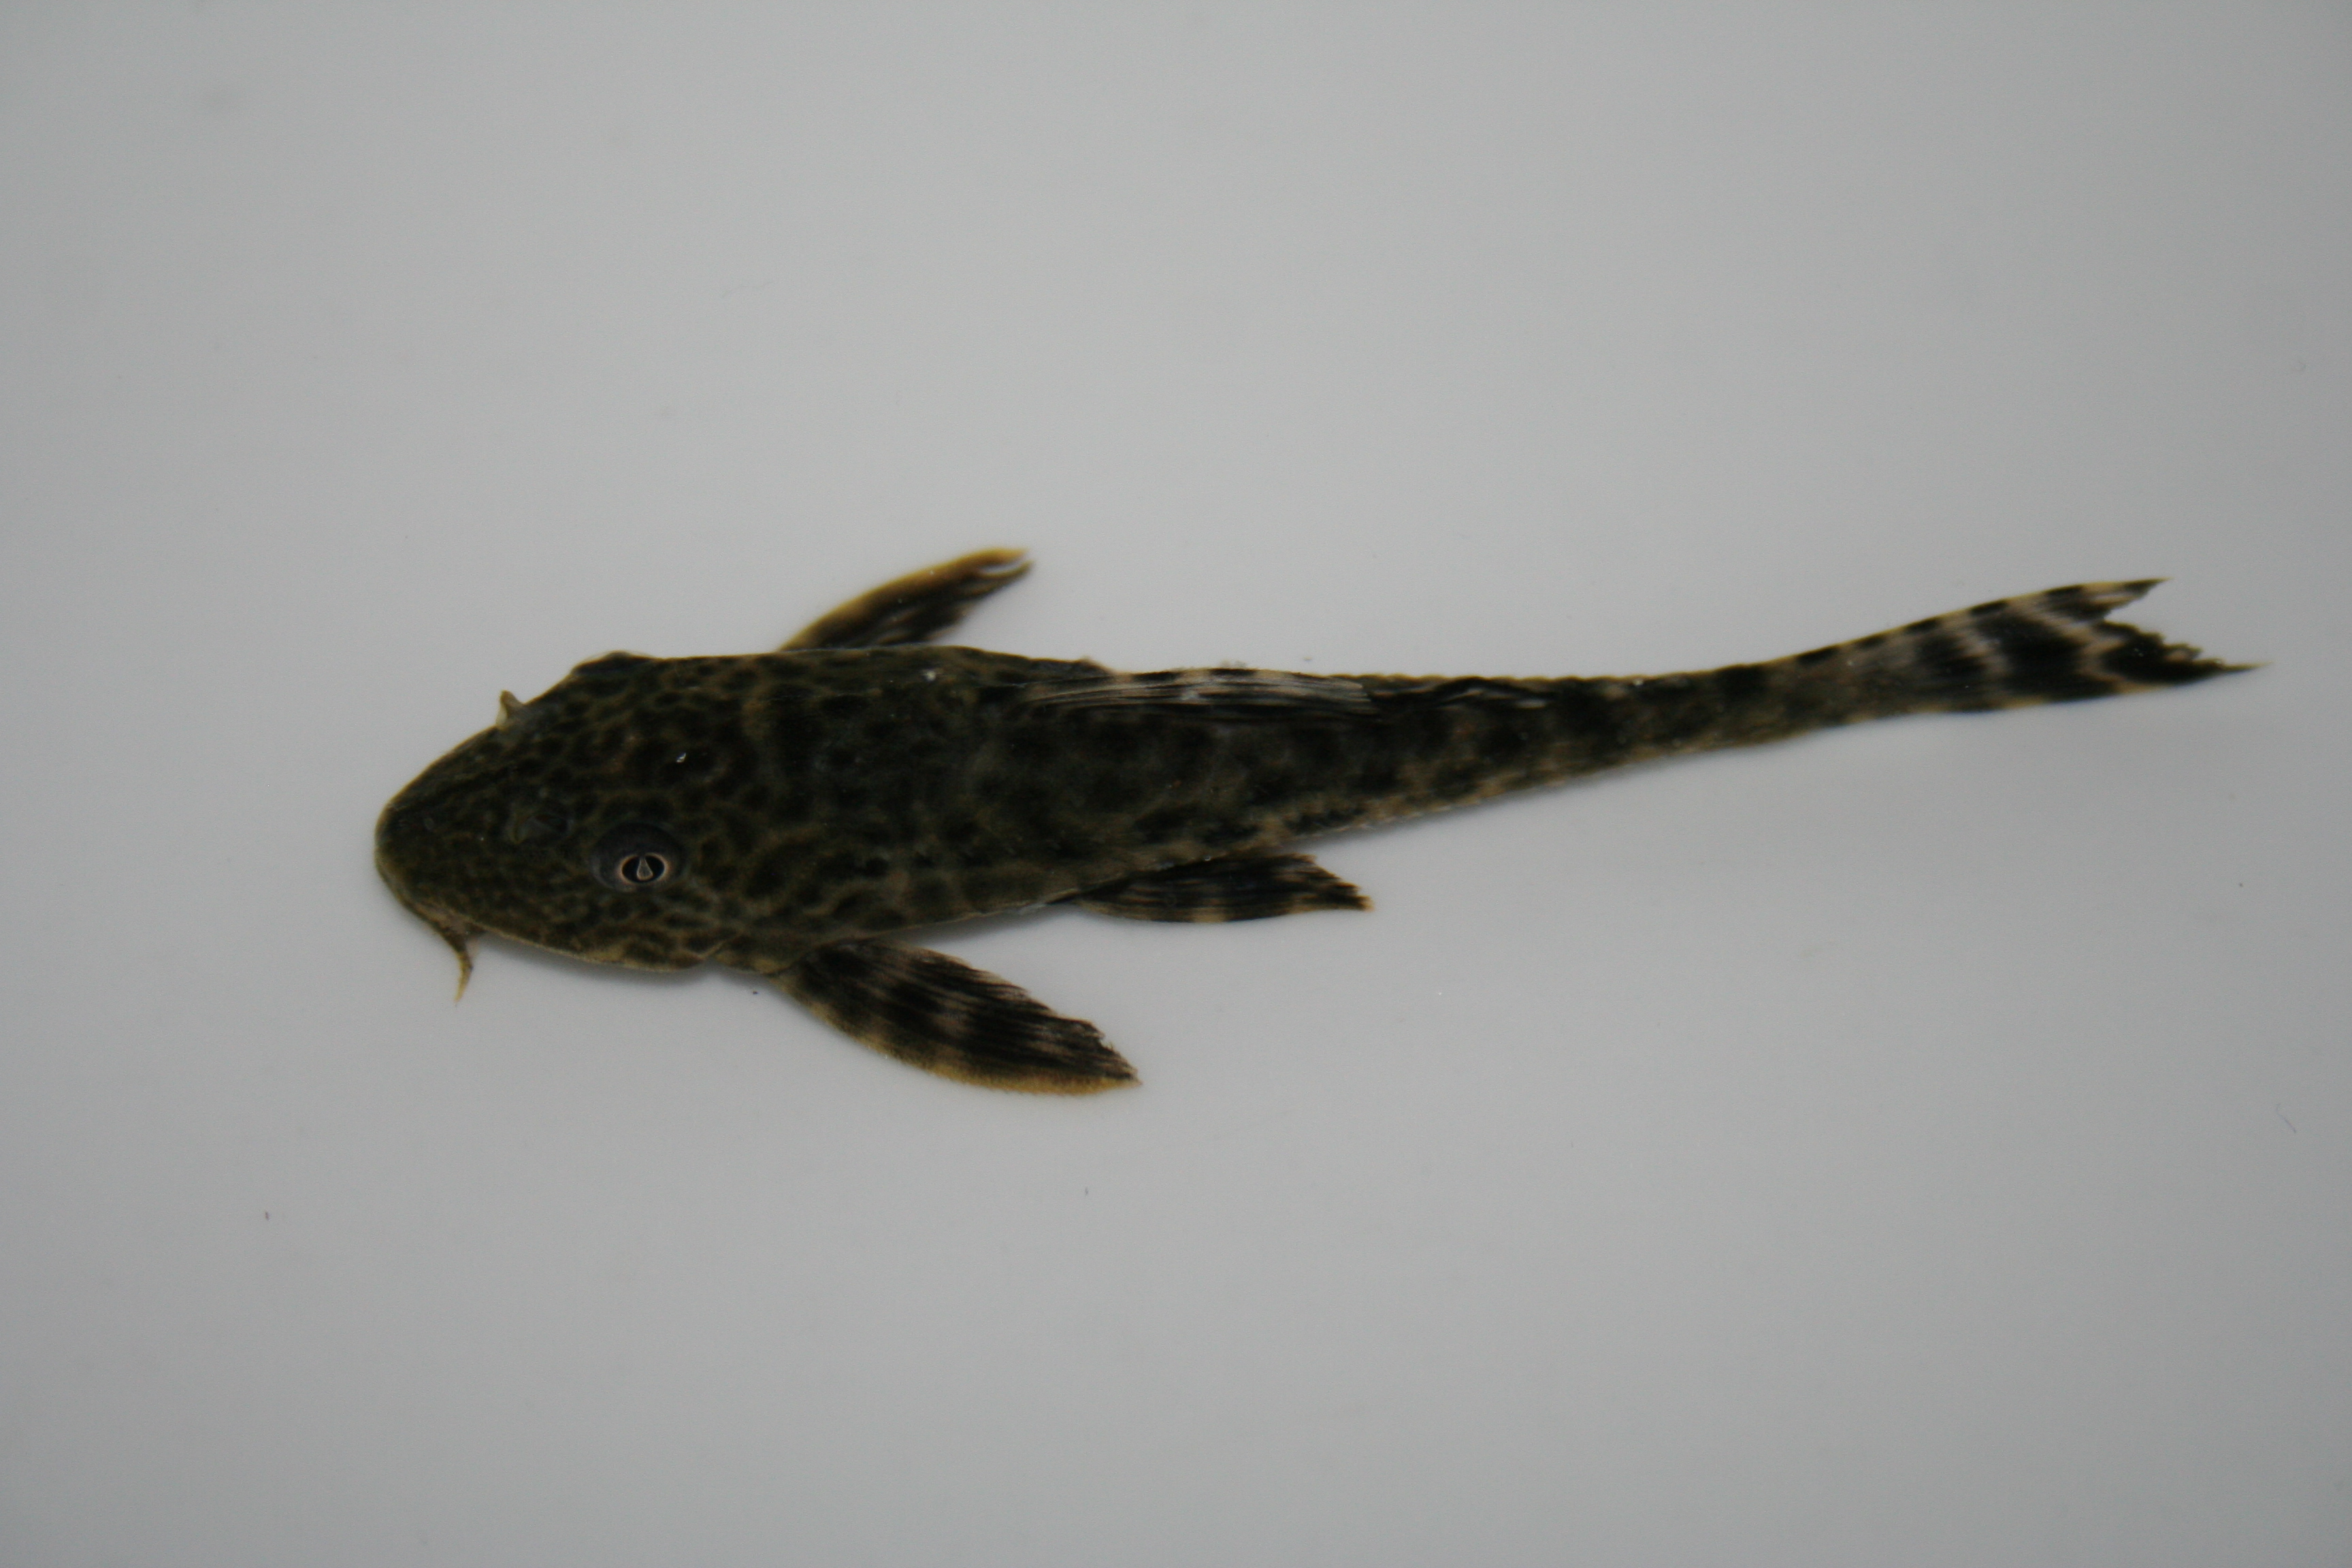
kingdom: Animalia
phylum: Chordata
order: Siluriformes
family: Loricariidae
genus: Pterygoplichthys
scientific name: Pterygoplichthys
